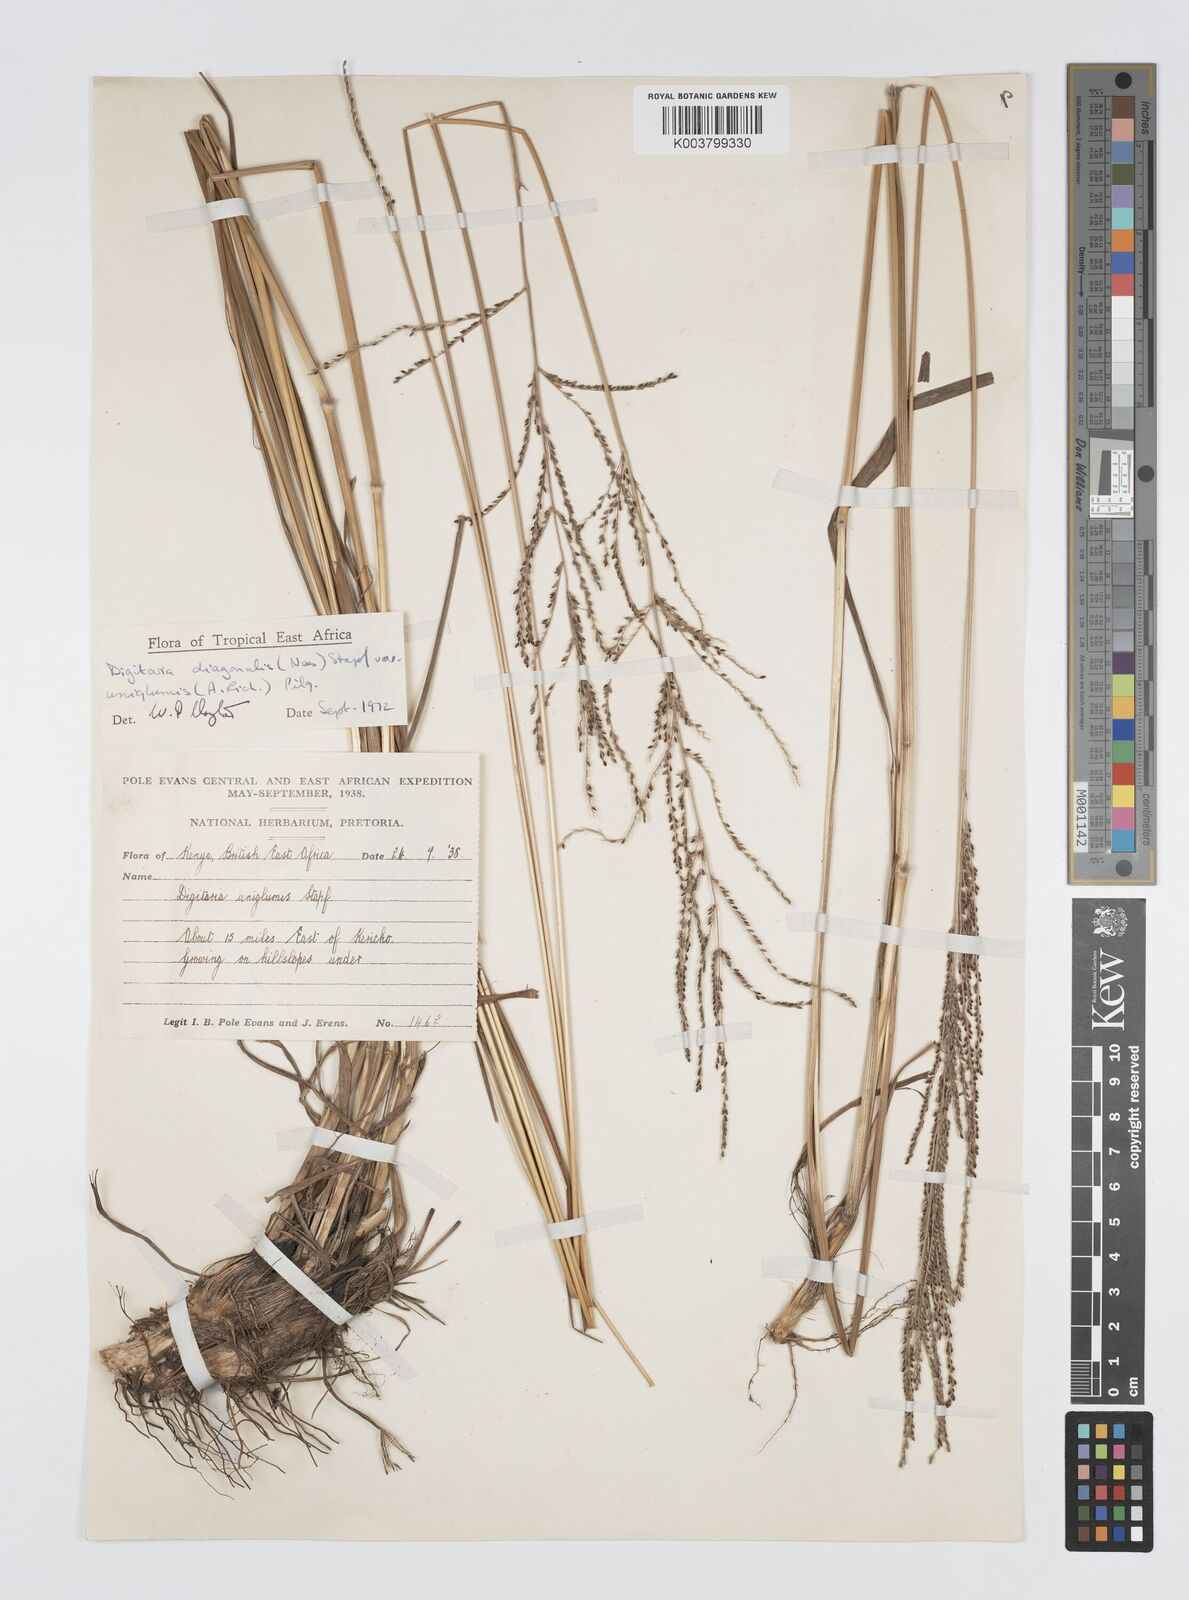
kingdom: Plantae
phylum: Tracheophyta
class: Liliopsida
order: Poales
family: Poaceae
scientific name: Poaceae
